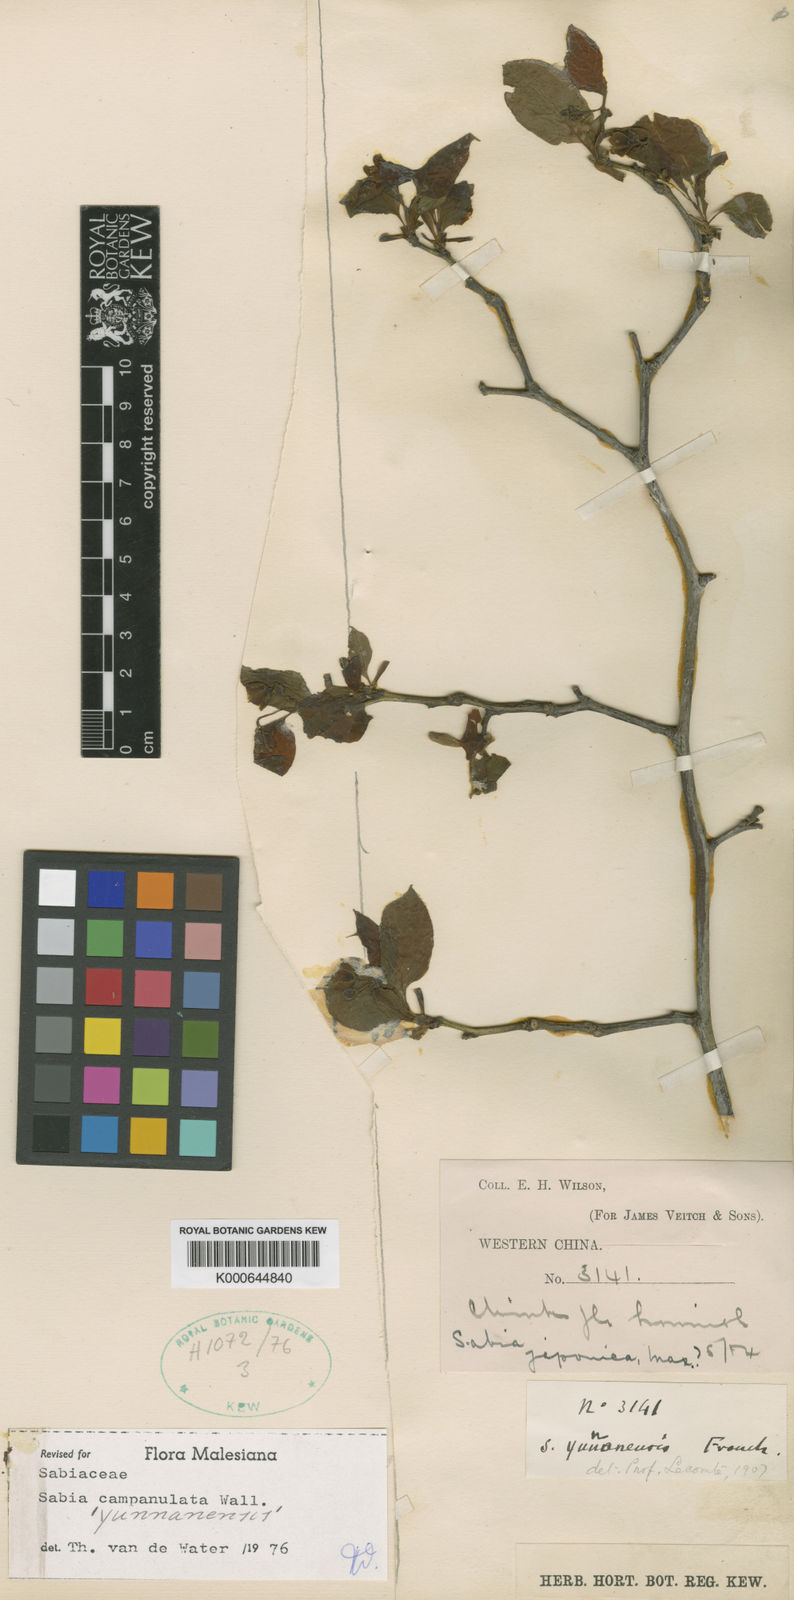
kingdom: Plantae
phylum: Tracheophyta
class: Magnoliopsida
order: Proteales
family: Sabiaceae
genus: Sabia
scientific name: Sabia campanulata
